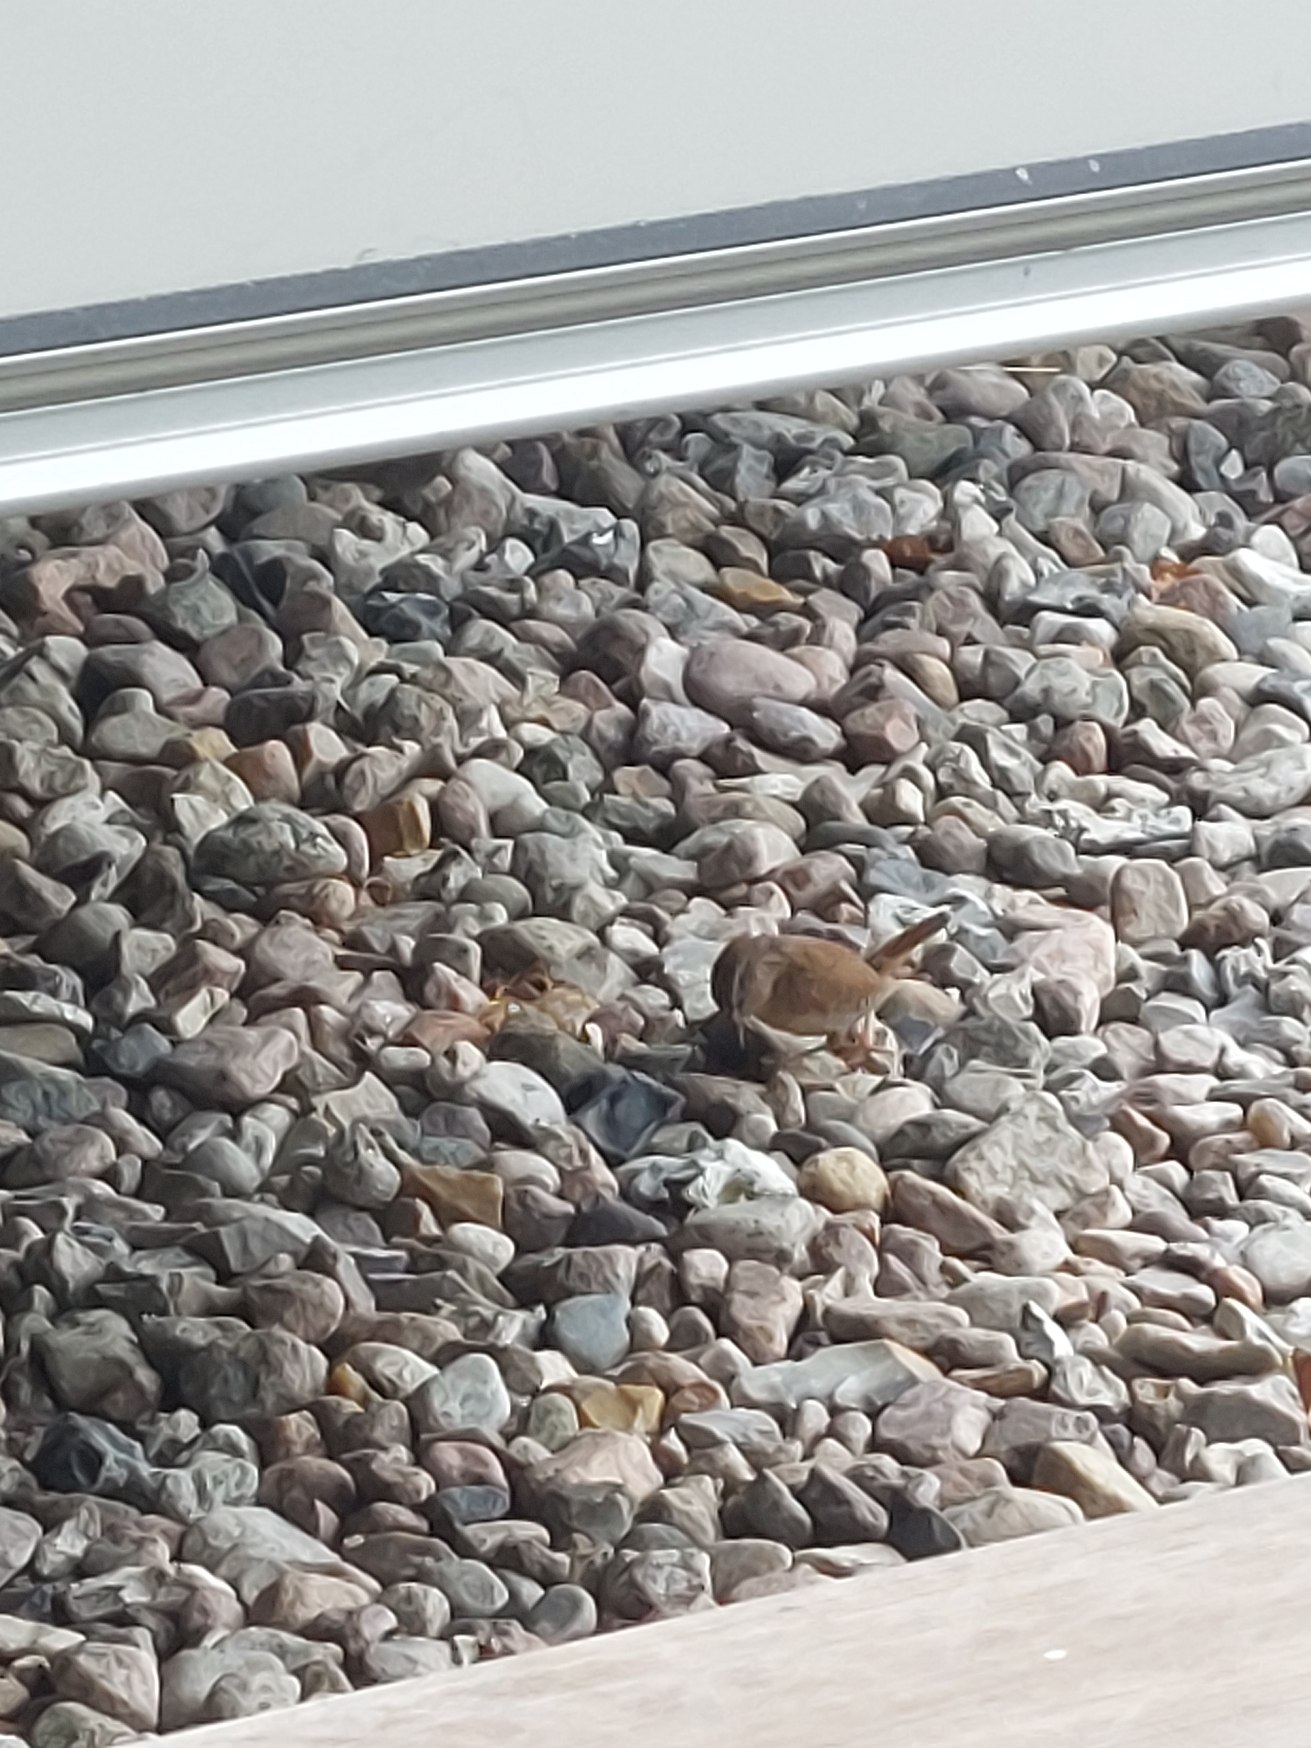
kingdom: Animalia
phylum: Chordata
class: Aves
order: Passeriformes
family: Troglodytidae
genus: Troglodytes
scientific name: Troglodytes troglodytes
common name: Gærdesmutte
